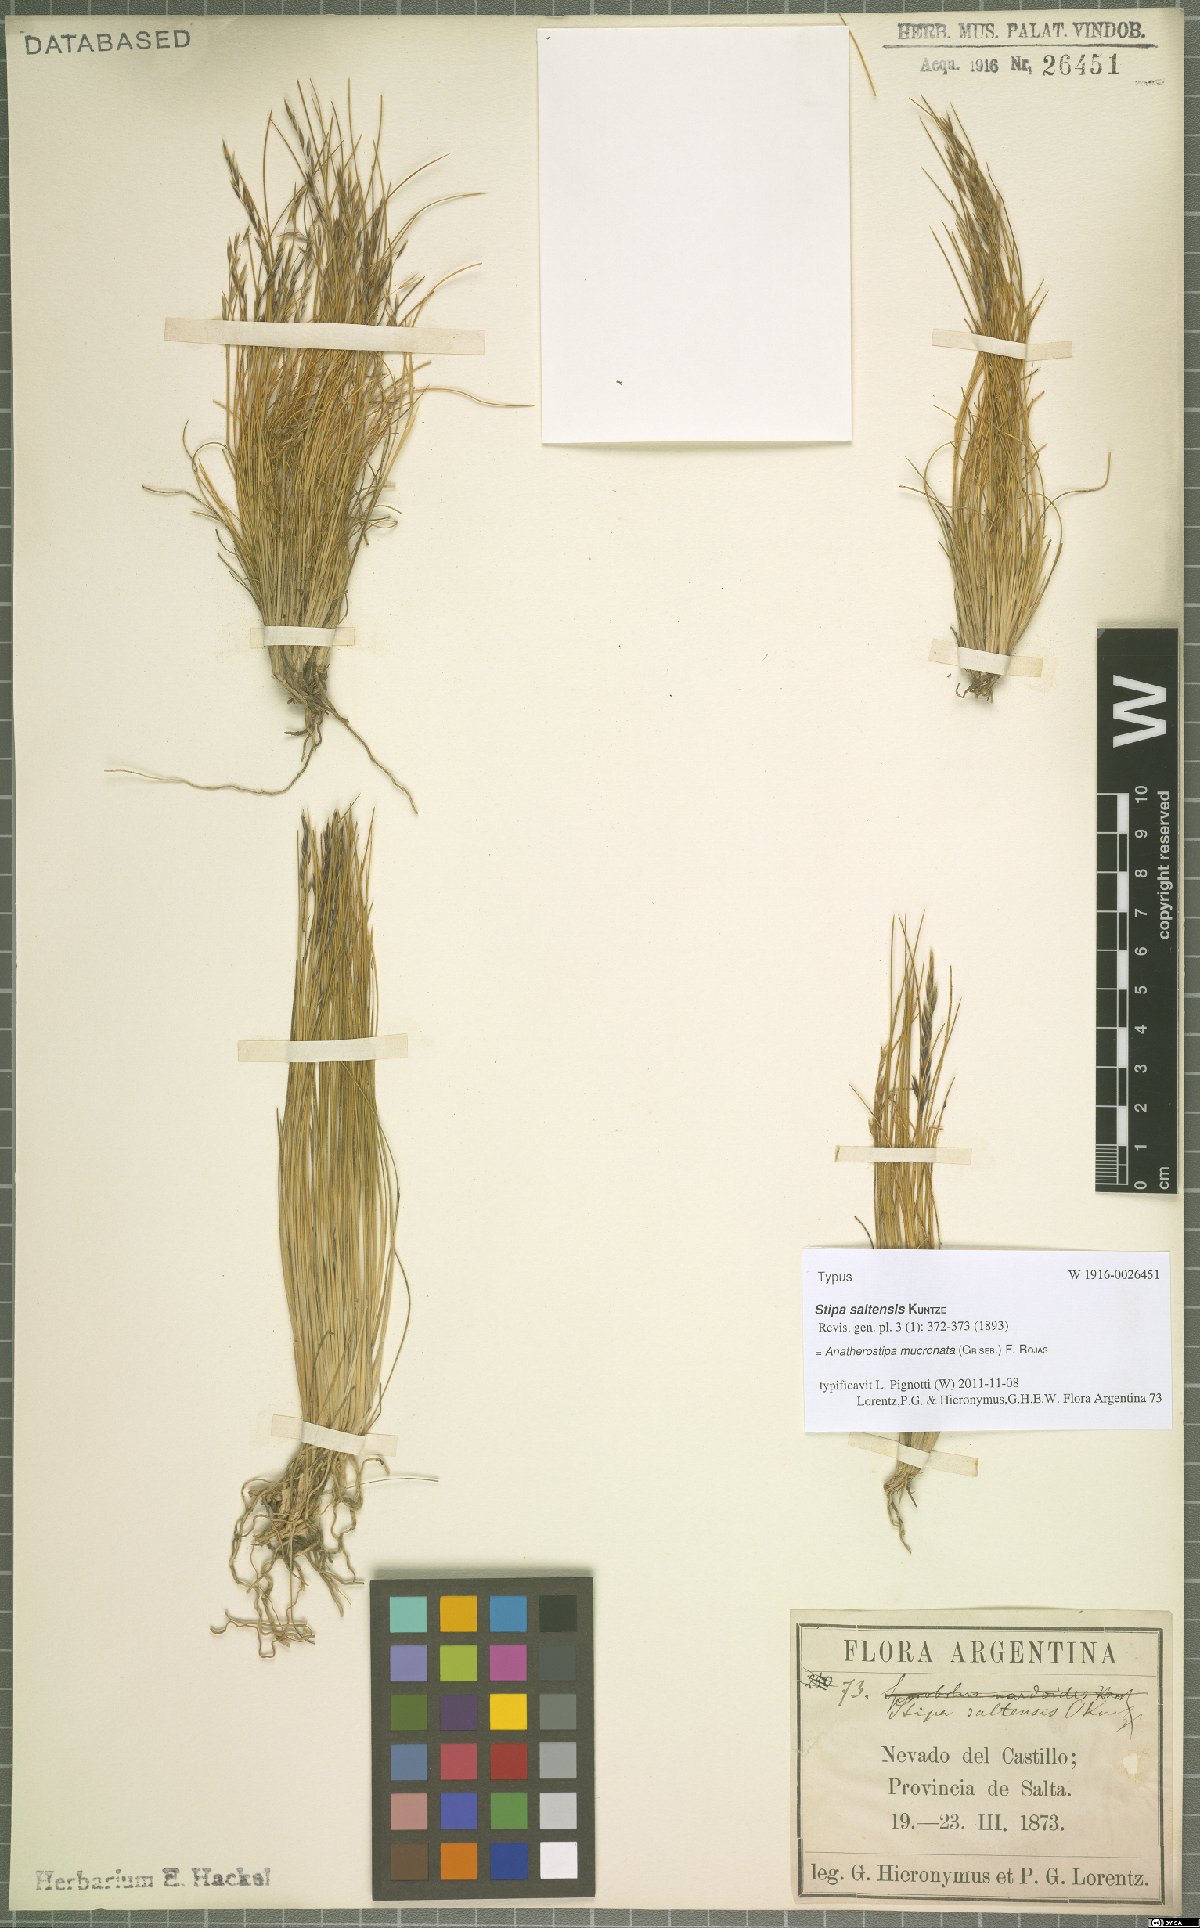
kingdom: Plantae
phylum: Tracheophyta
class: Liliopsida
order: Poales
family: Poaceae
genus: Nassella
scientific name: Nassella mucronata
